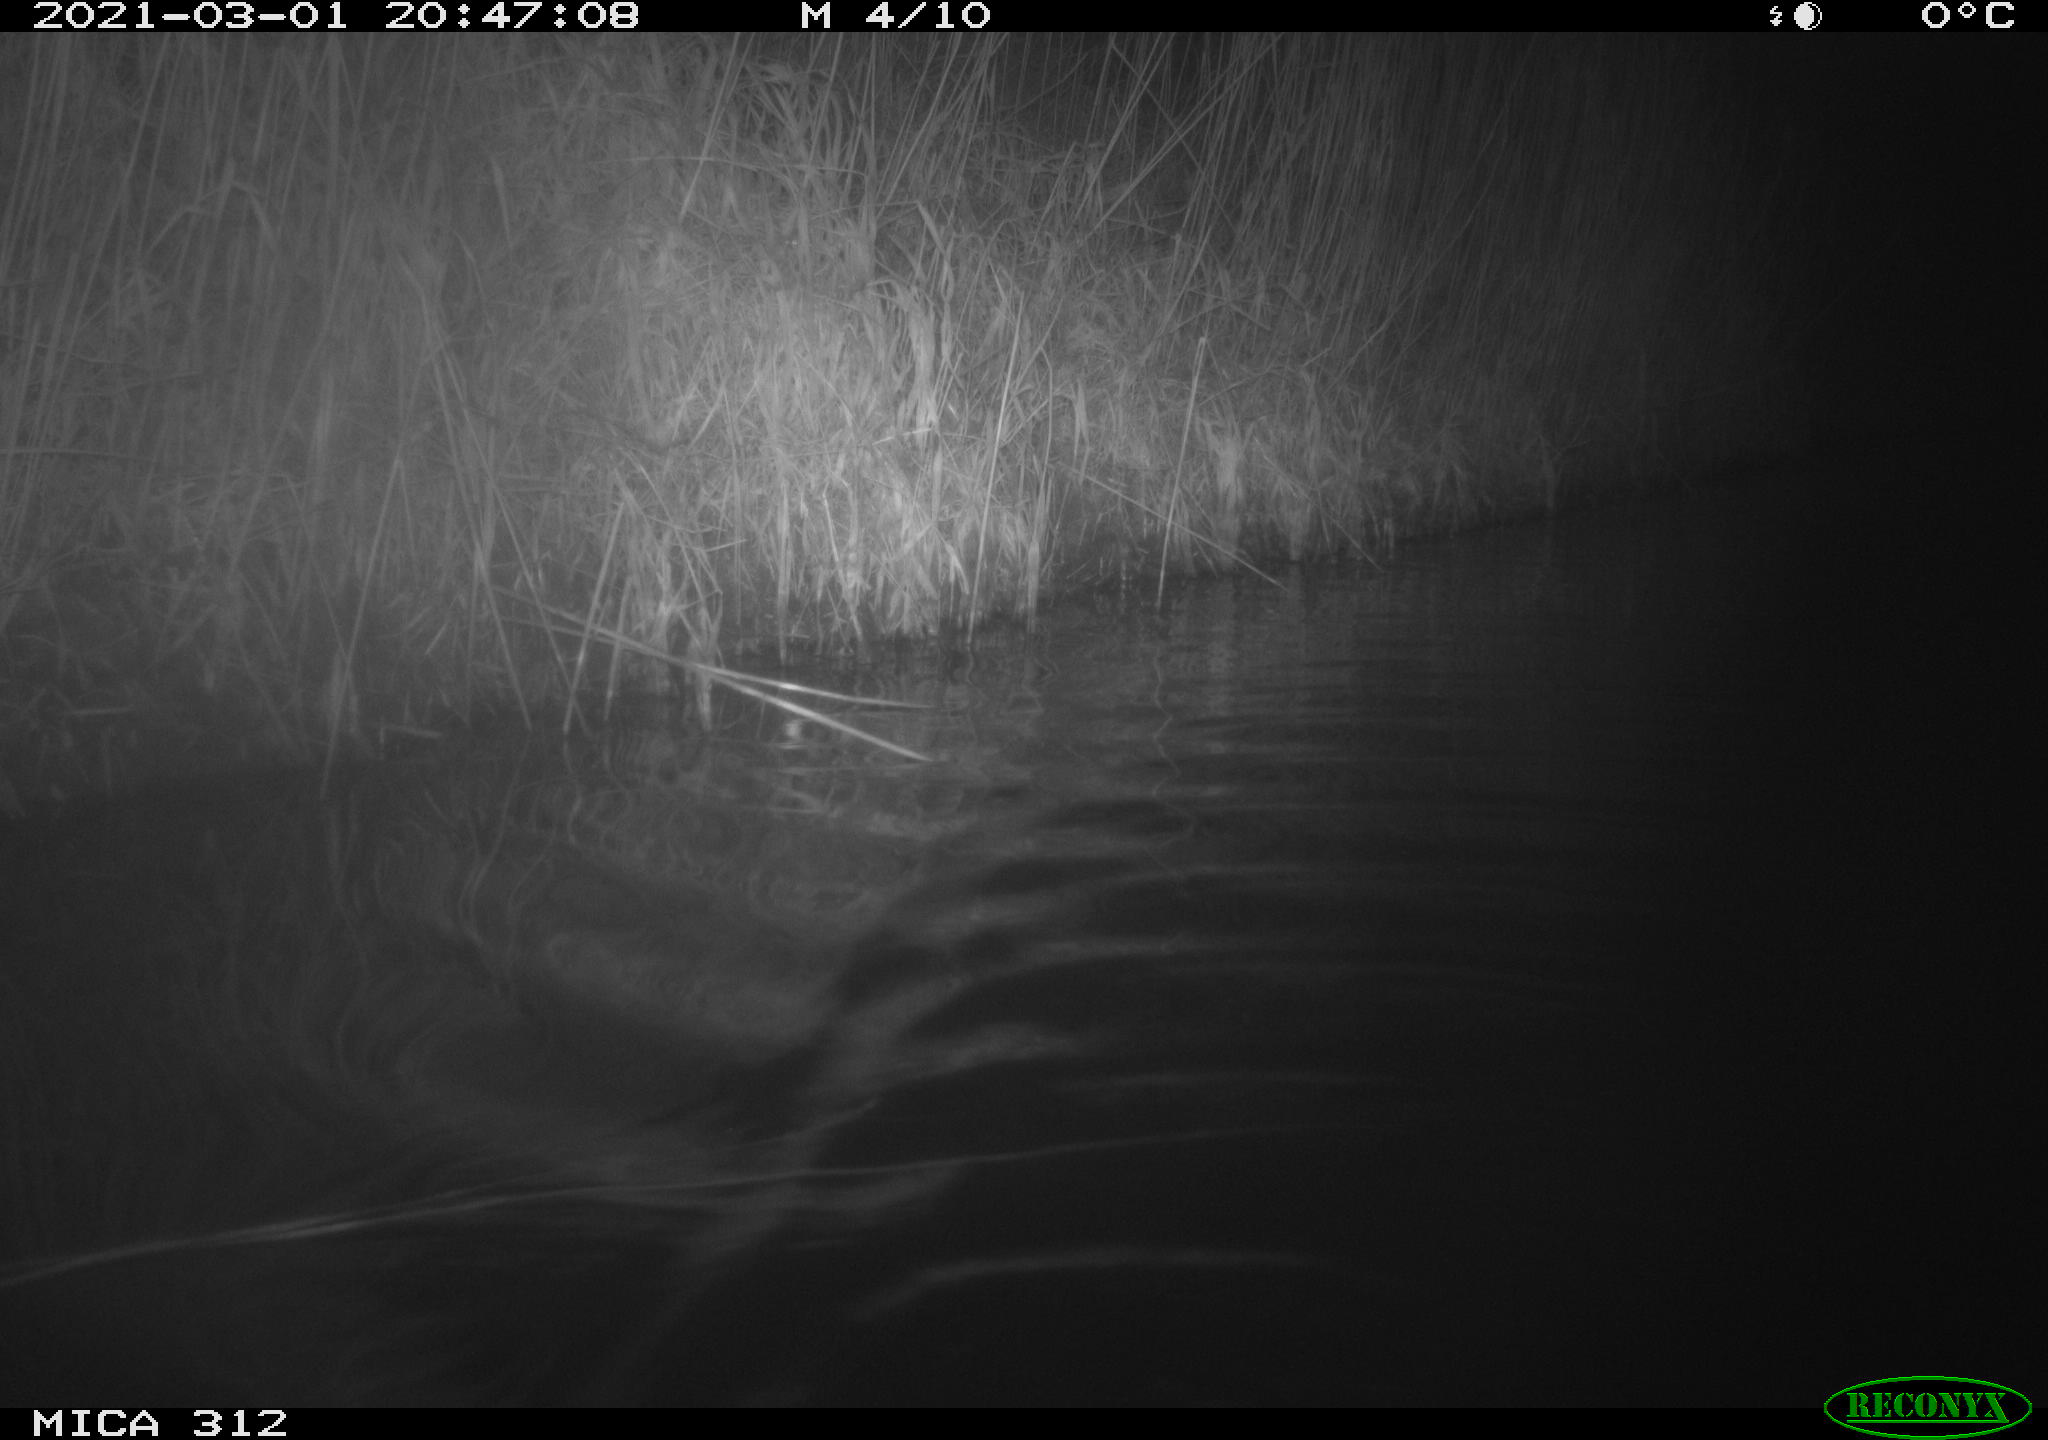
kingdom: Animalia
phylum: Chordata
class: Mammalia
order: Rodentia
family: Cricetidae
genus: Ondatra
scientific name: Ondatra zibethicus
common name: Muskrat
